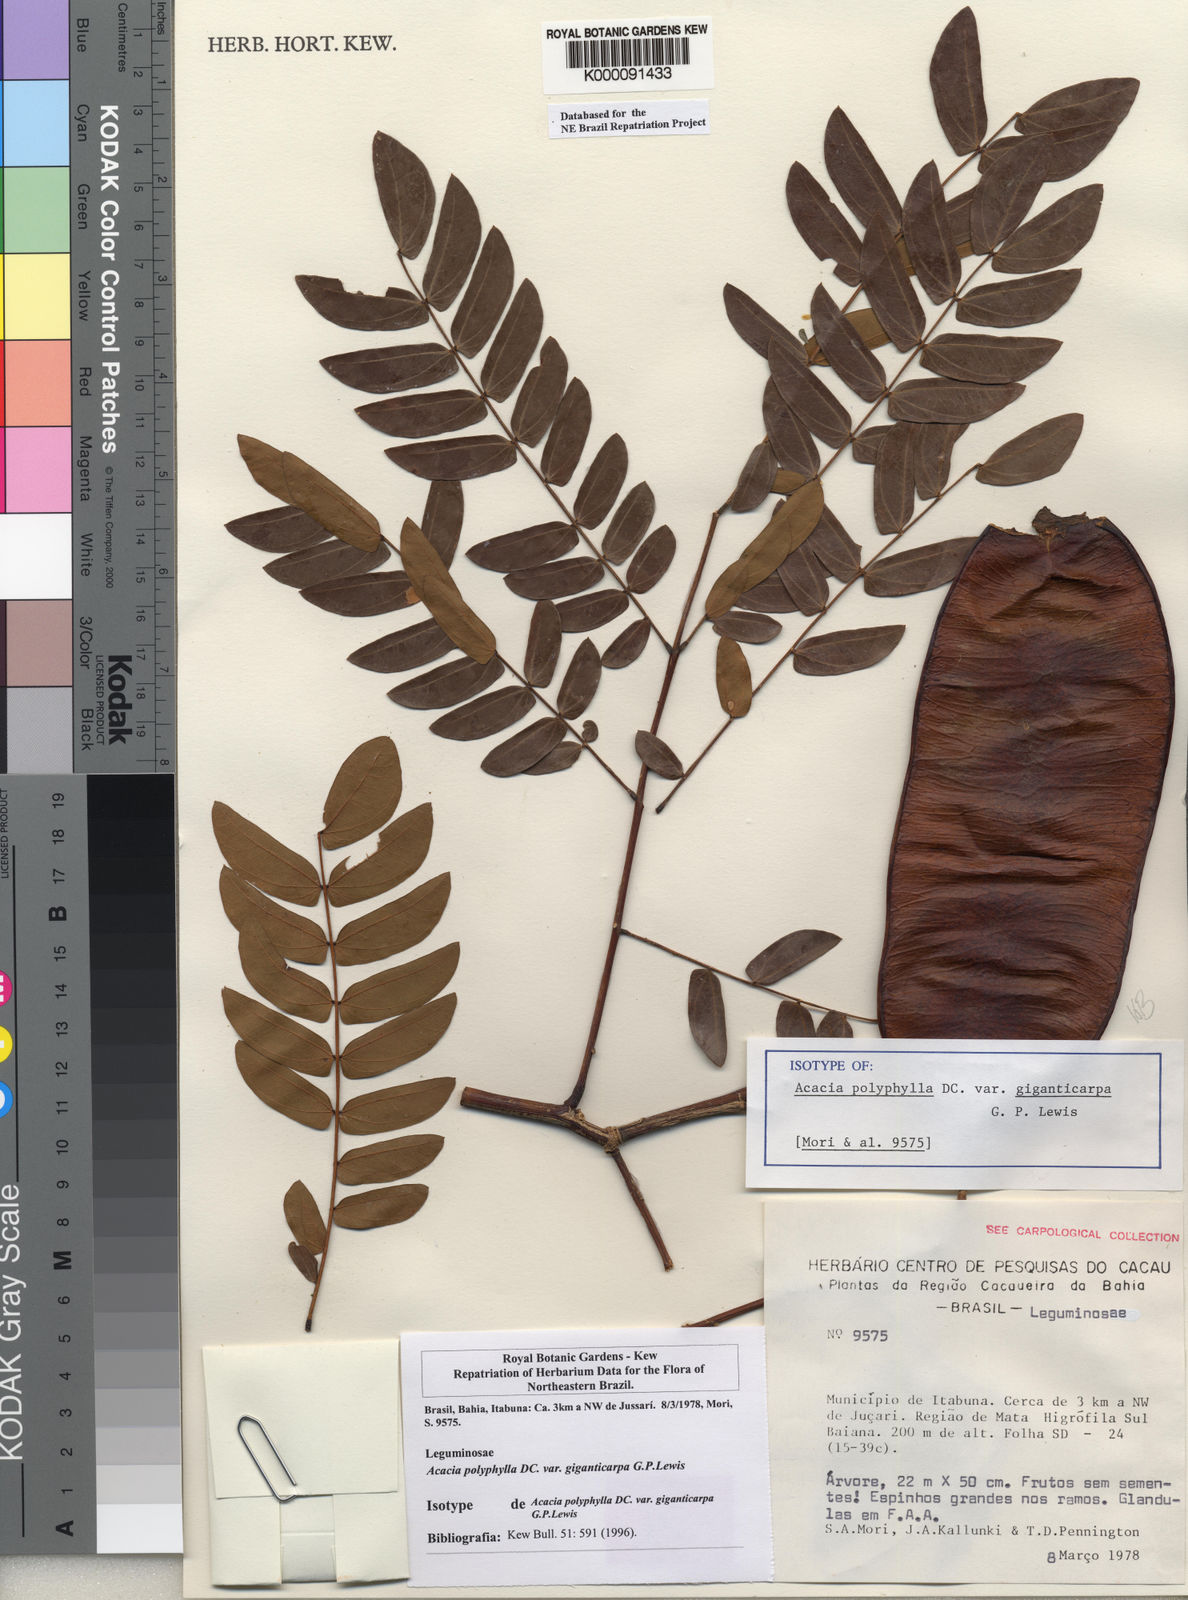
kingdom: Plantae
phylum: Tracheophyta
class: Magnoliopsida
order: Fabales
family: Fabaceae
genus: Senegalia
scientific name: Senegalia giganticarpa
